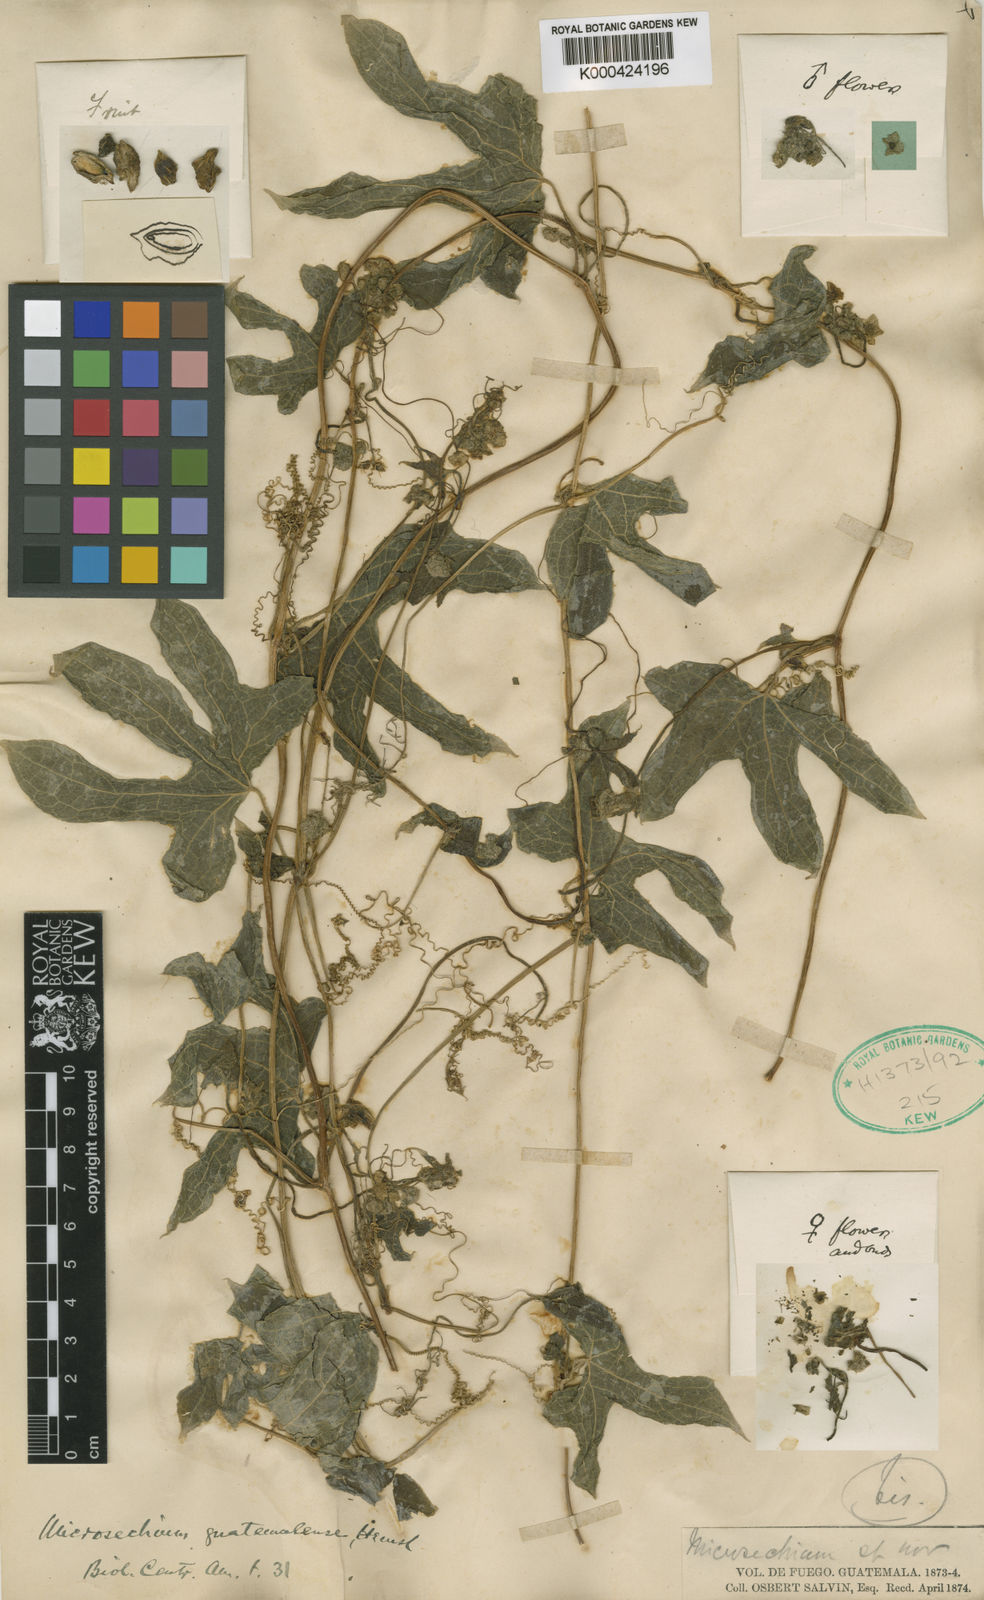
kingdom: Plantae
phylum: Tracheophyta
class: Magnoliopsida
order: Cucurbitales
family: Cucurbitaceae
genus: Microsechium
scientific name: Microsechium palmatum
